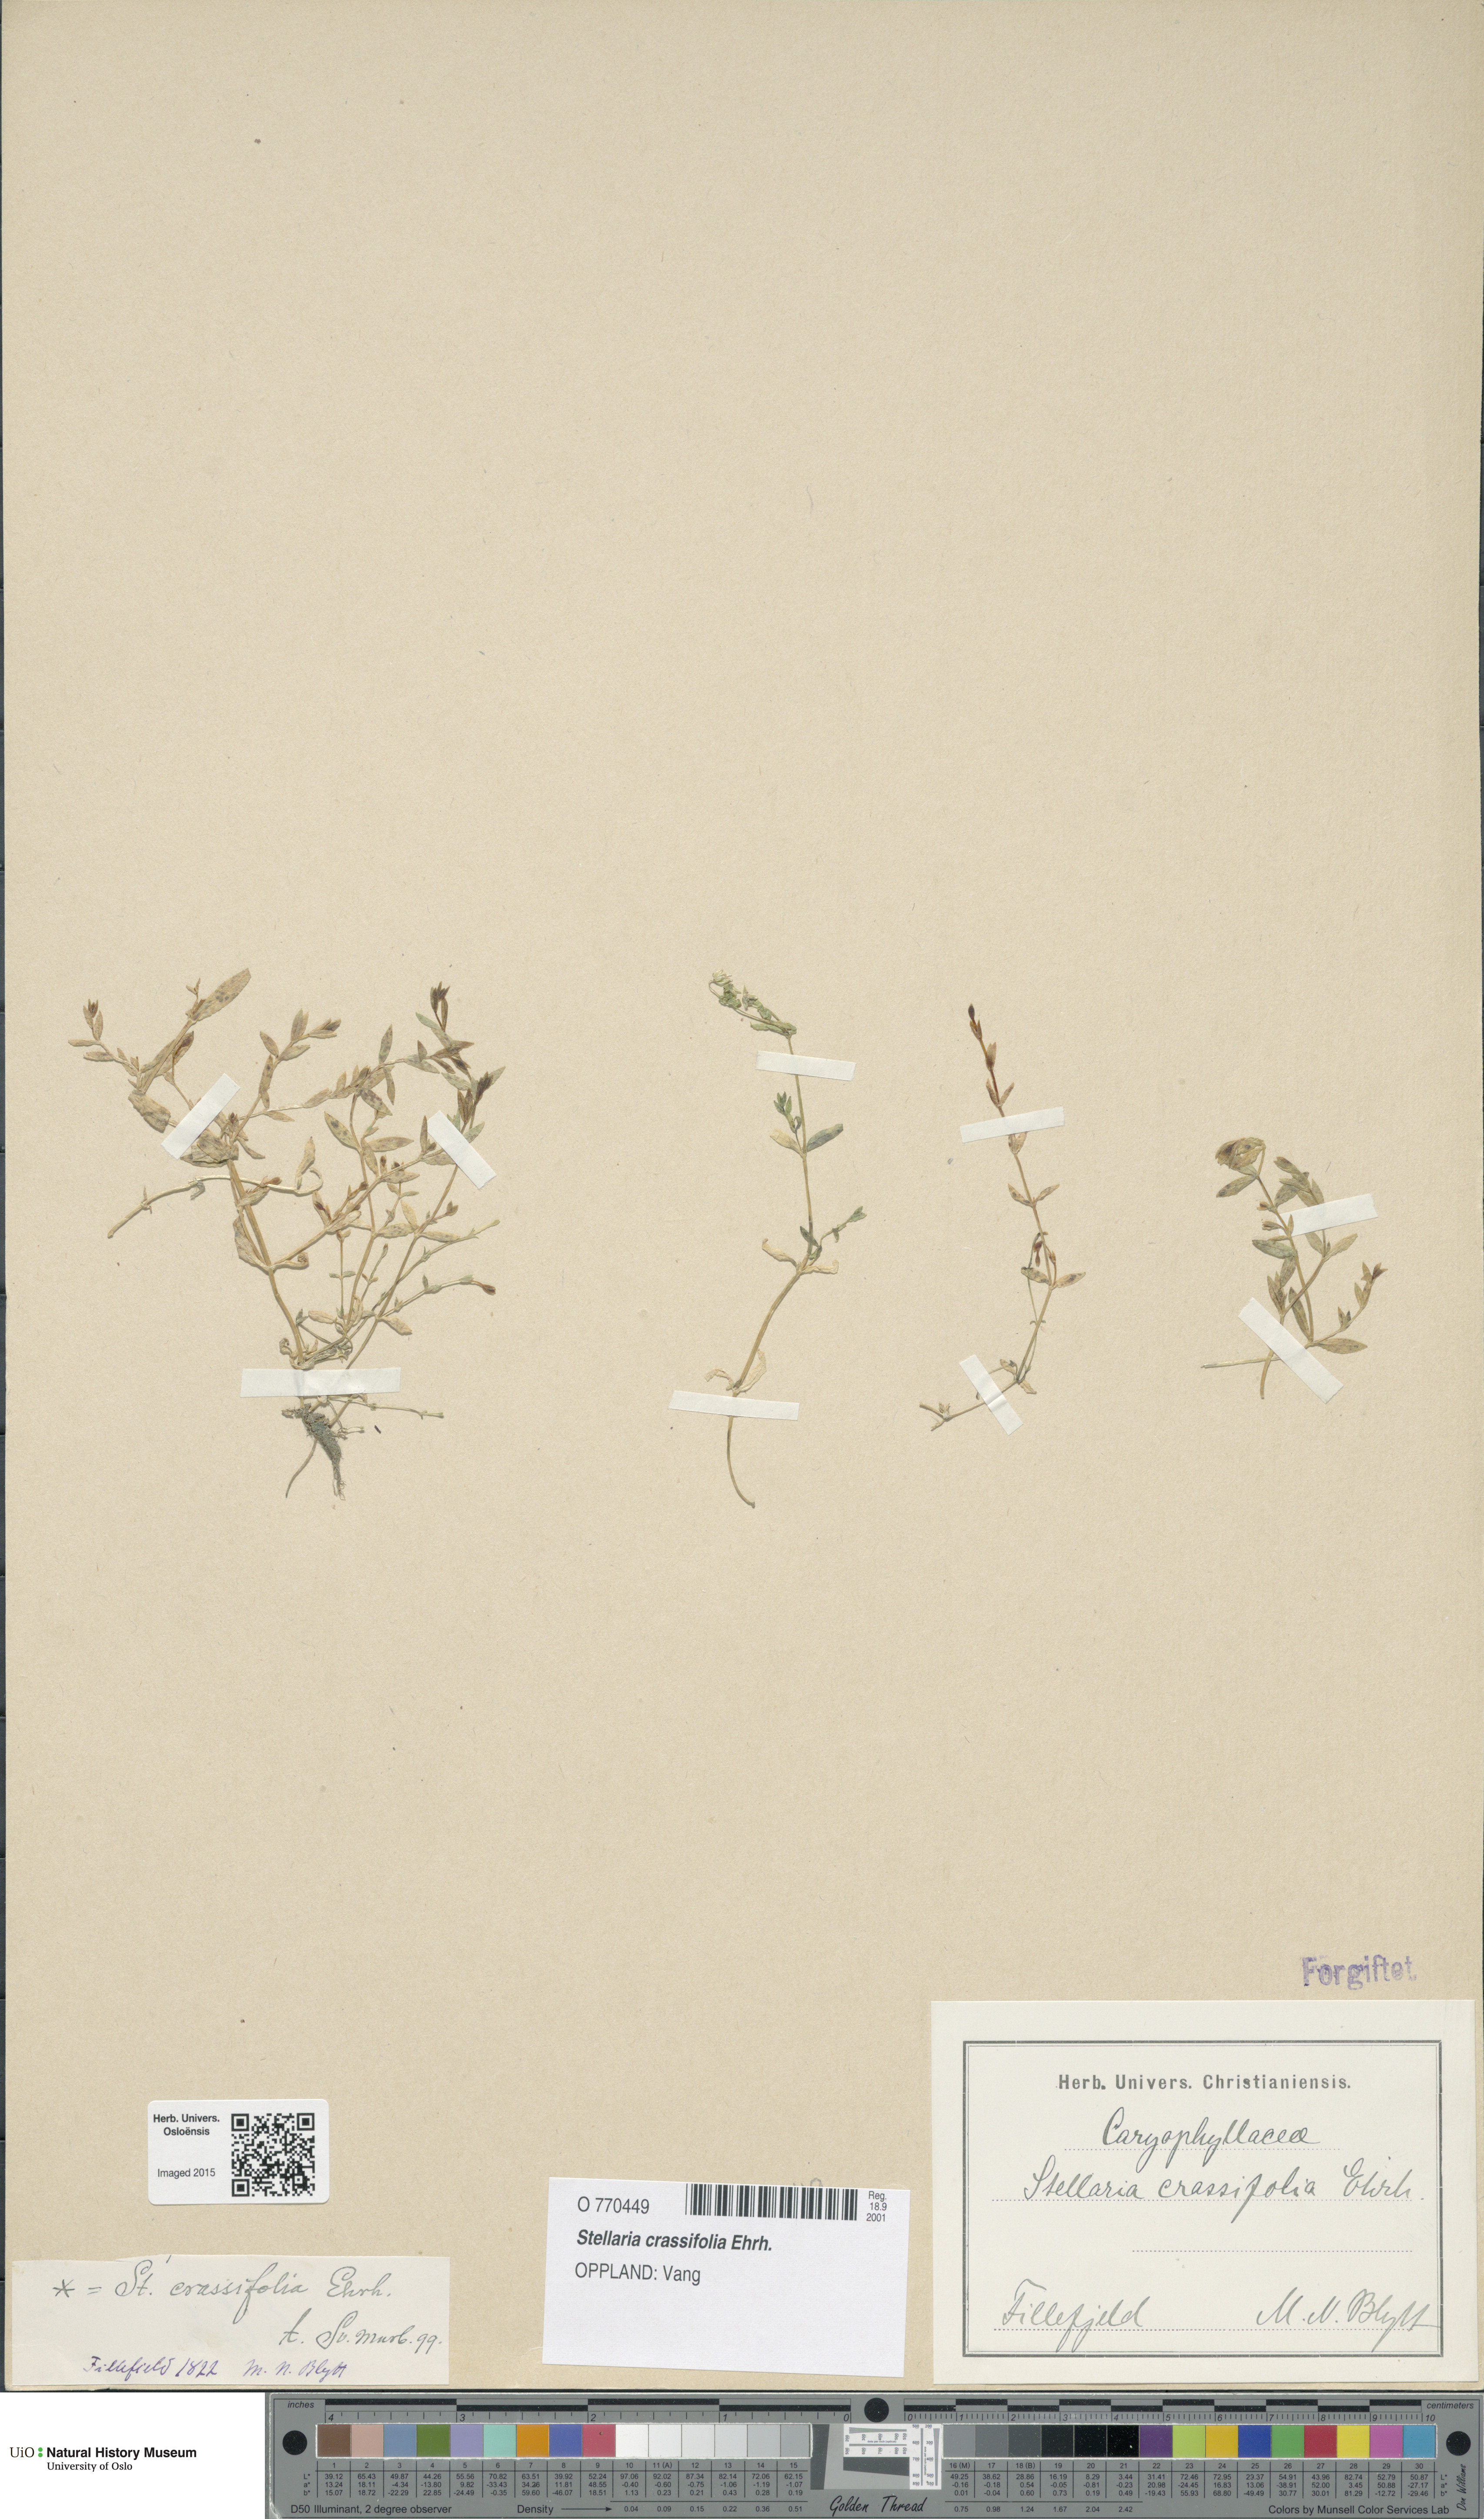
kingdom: Plantae
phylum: Tracheophyta
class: Magnoliopsida
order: Caryophyllales
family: Caryophyllaceae
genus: Stellaria
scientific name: Stellaria crassifolia
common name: Fleshy starwort
